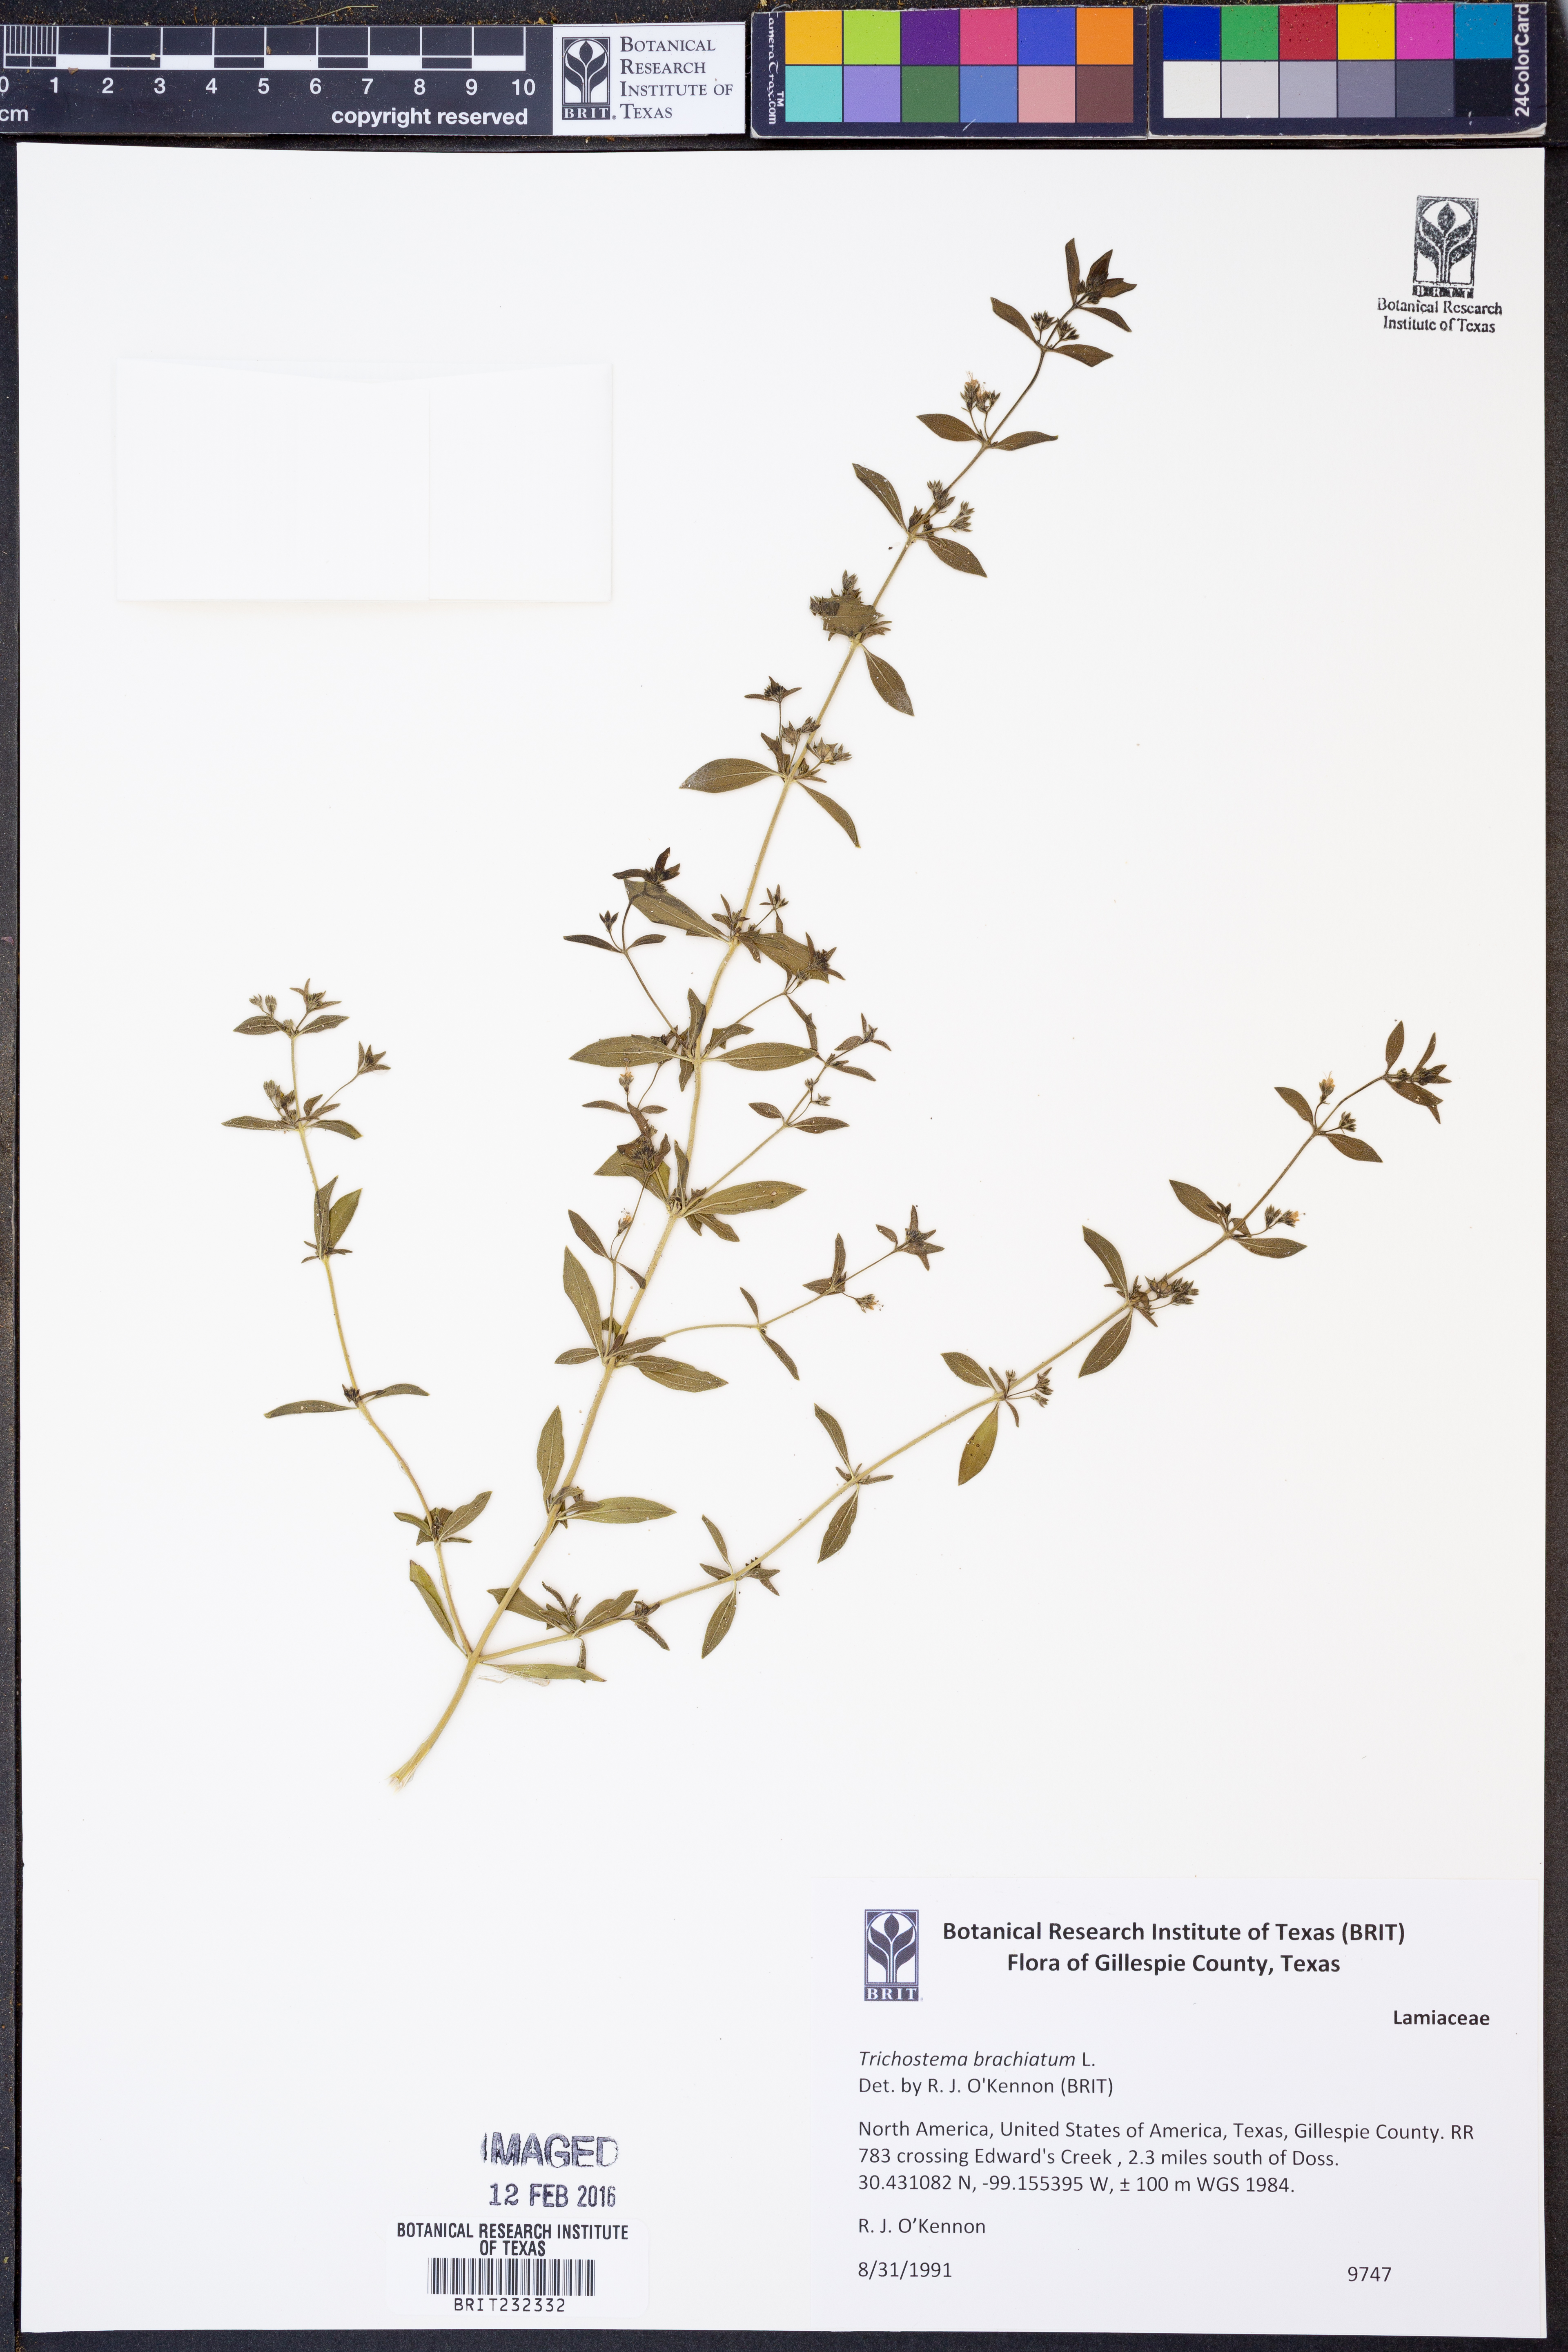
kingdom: Plantae
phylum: Tracheophyta
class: Magnoliopsida
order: Lamiales
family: Lamiaceae
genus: Trichostema
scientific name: Trichostema brachiatum
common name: False pennyroyal
